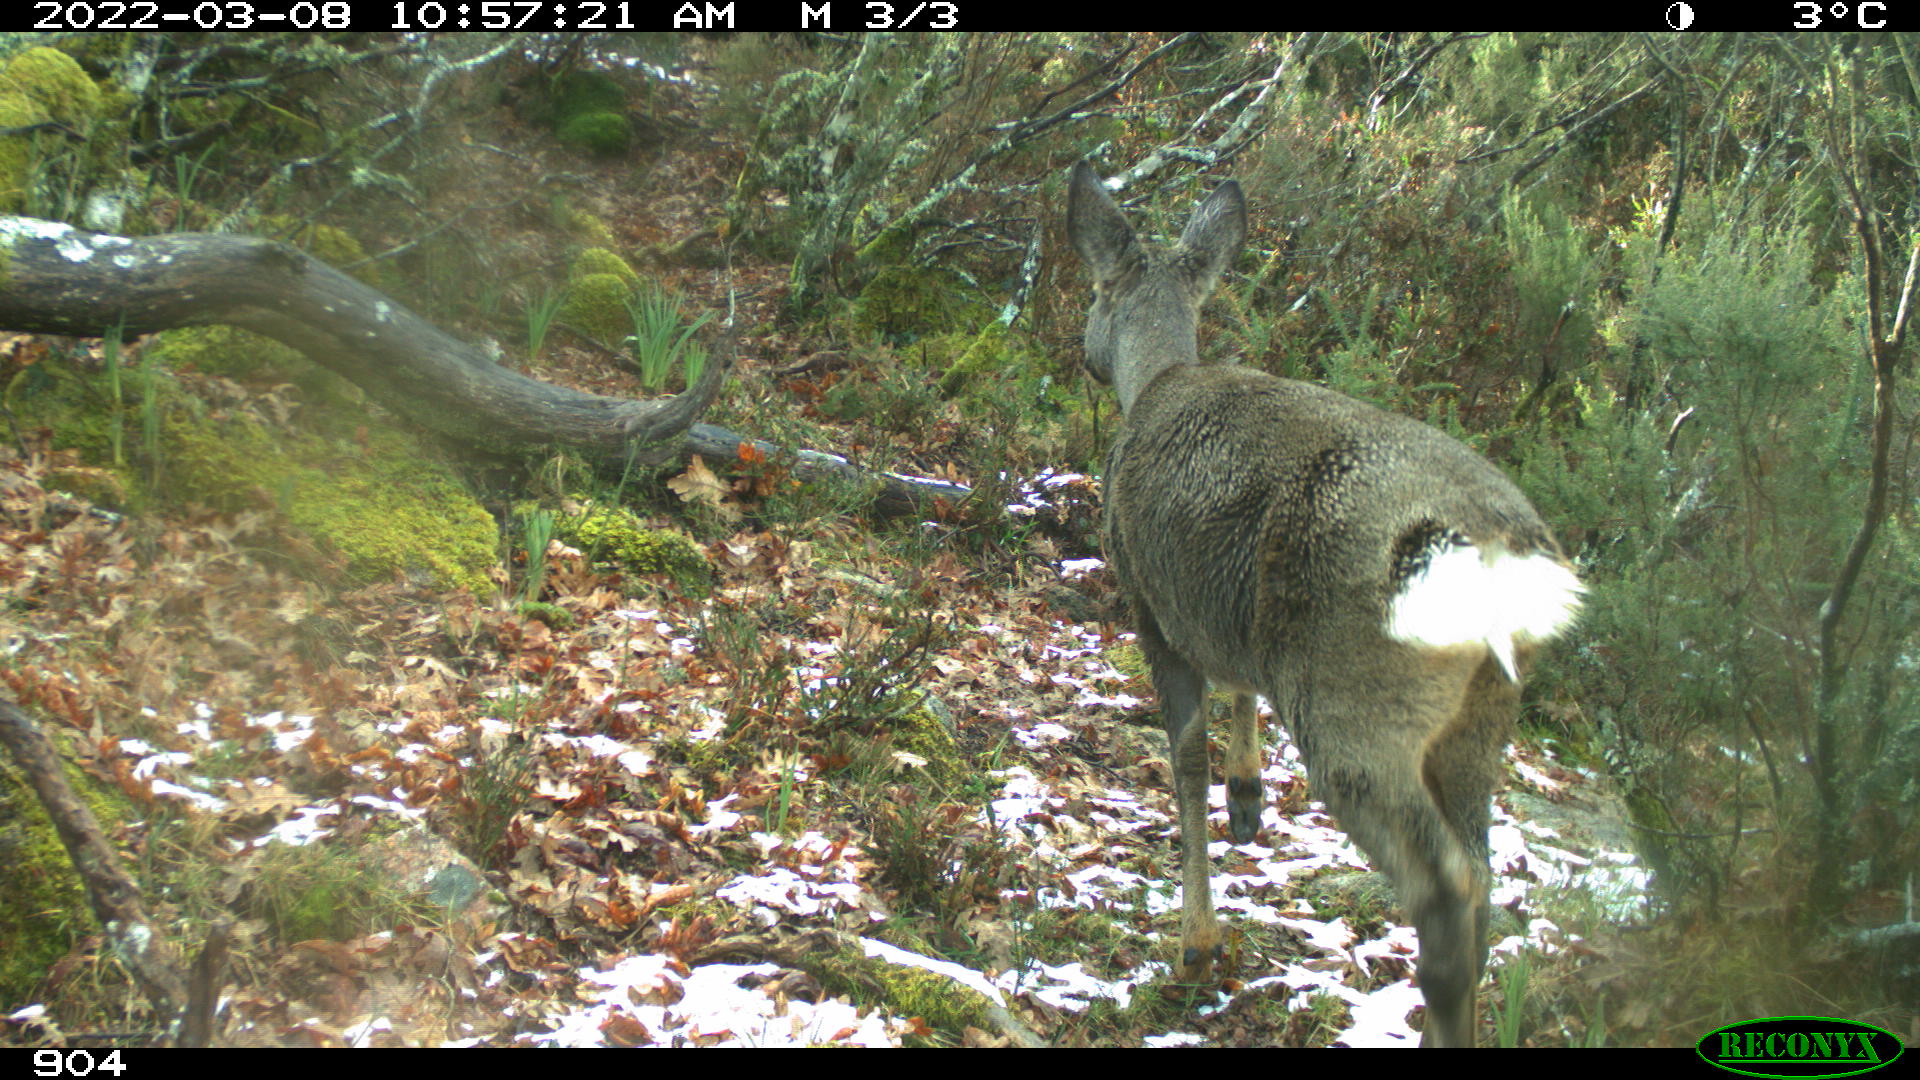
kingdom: Animalia
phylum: Chordata
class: Mammalia
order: Artiodactyla
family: Cervidae
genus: Capreolus
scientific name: Capreolus capreolus
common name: Western roe deer
